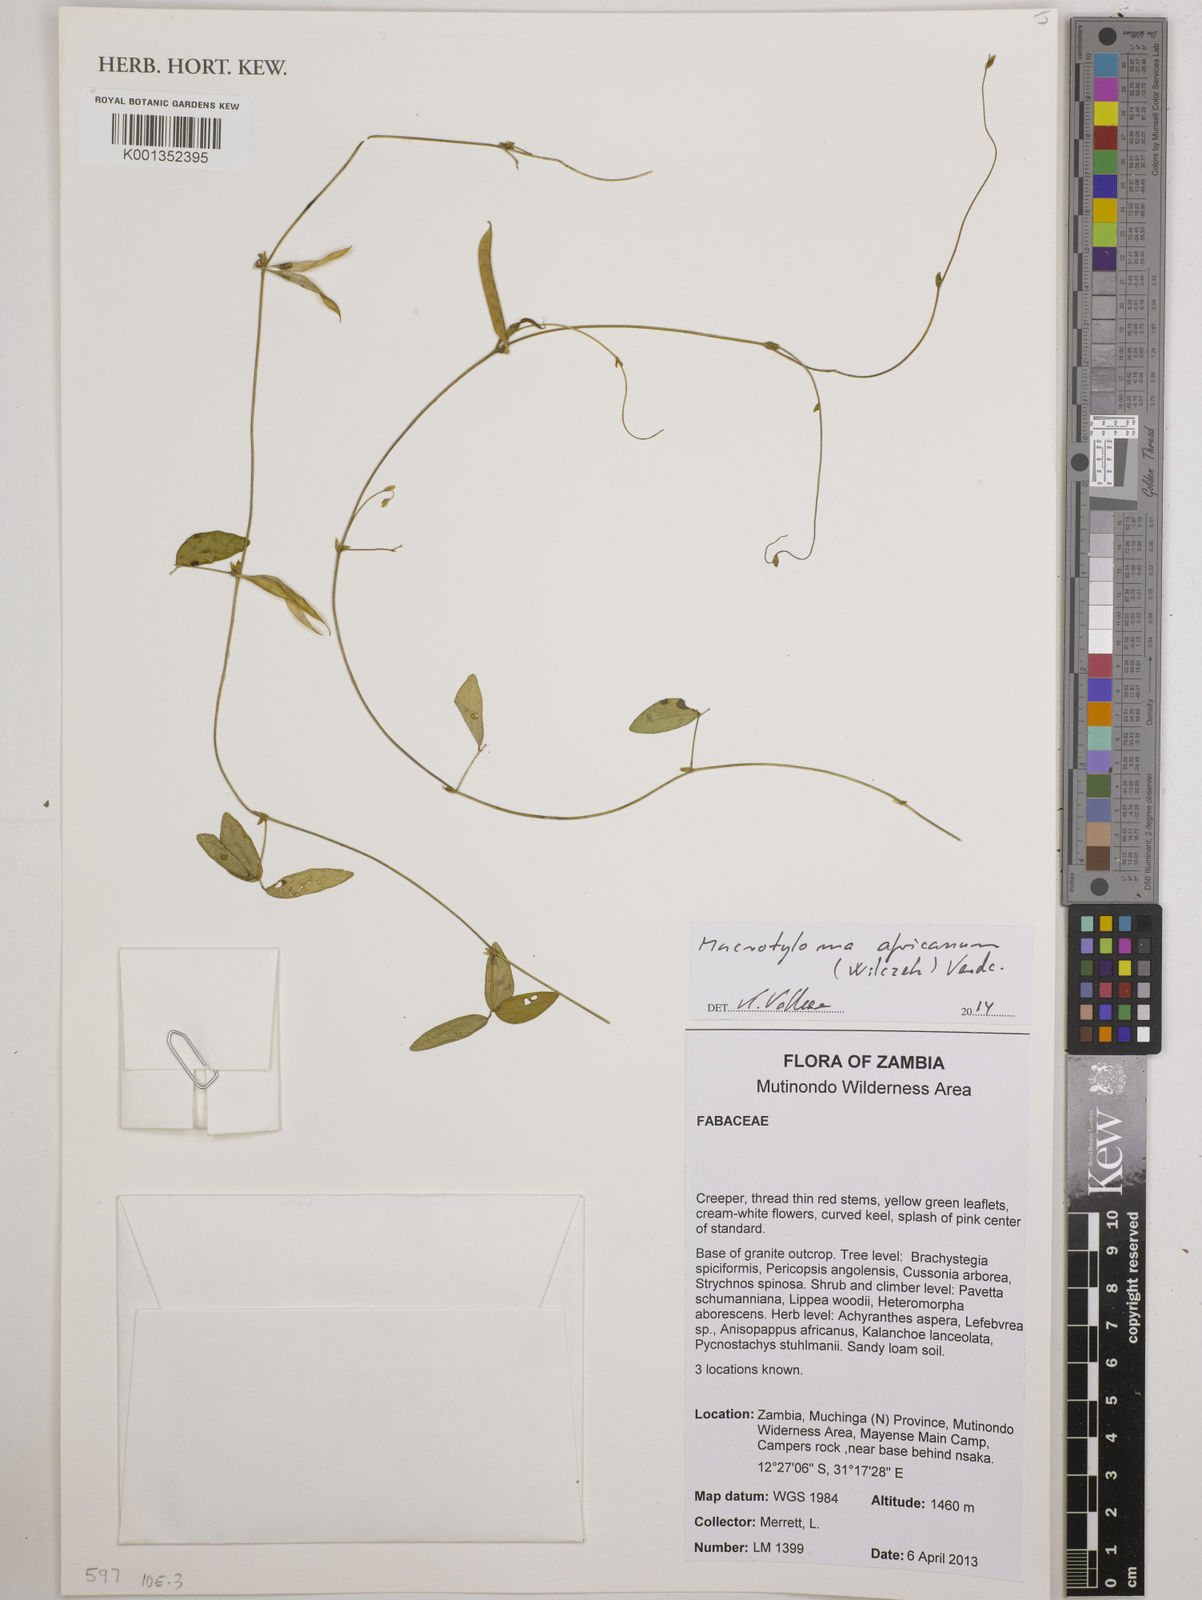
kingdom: Plantae
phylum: Tracheophyta
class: Magnoliopsida
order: Fabales
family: Fabaceae
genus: Macrotyloma
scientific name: Macrotyloma africanum
